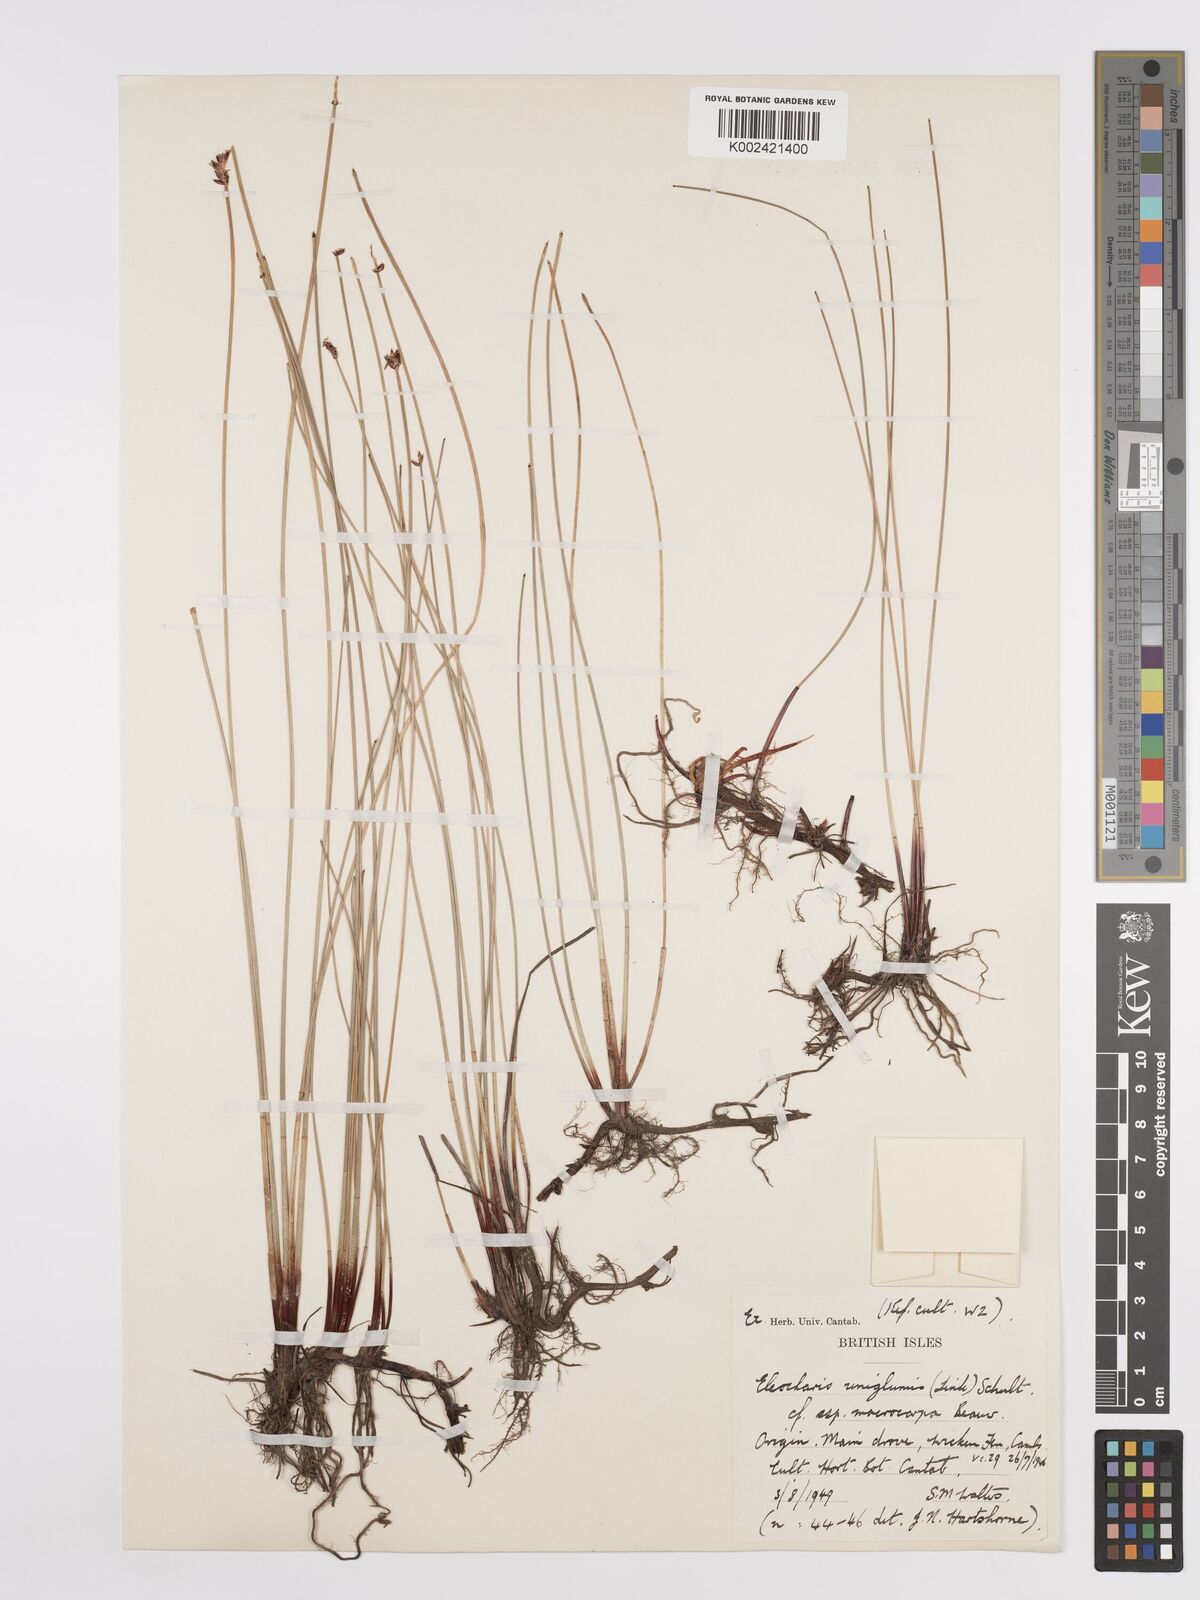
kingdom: Plantae
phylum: Tracheophyta
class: Liliopsida
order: Poales
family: Cyperaceae
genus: Eleocharis
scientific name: Eleocharis uniglumis
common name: Slender spike-rush
